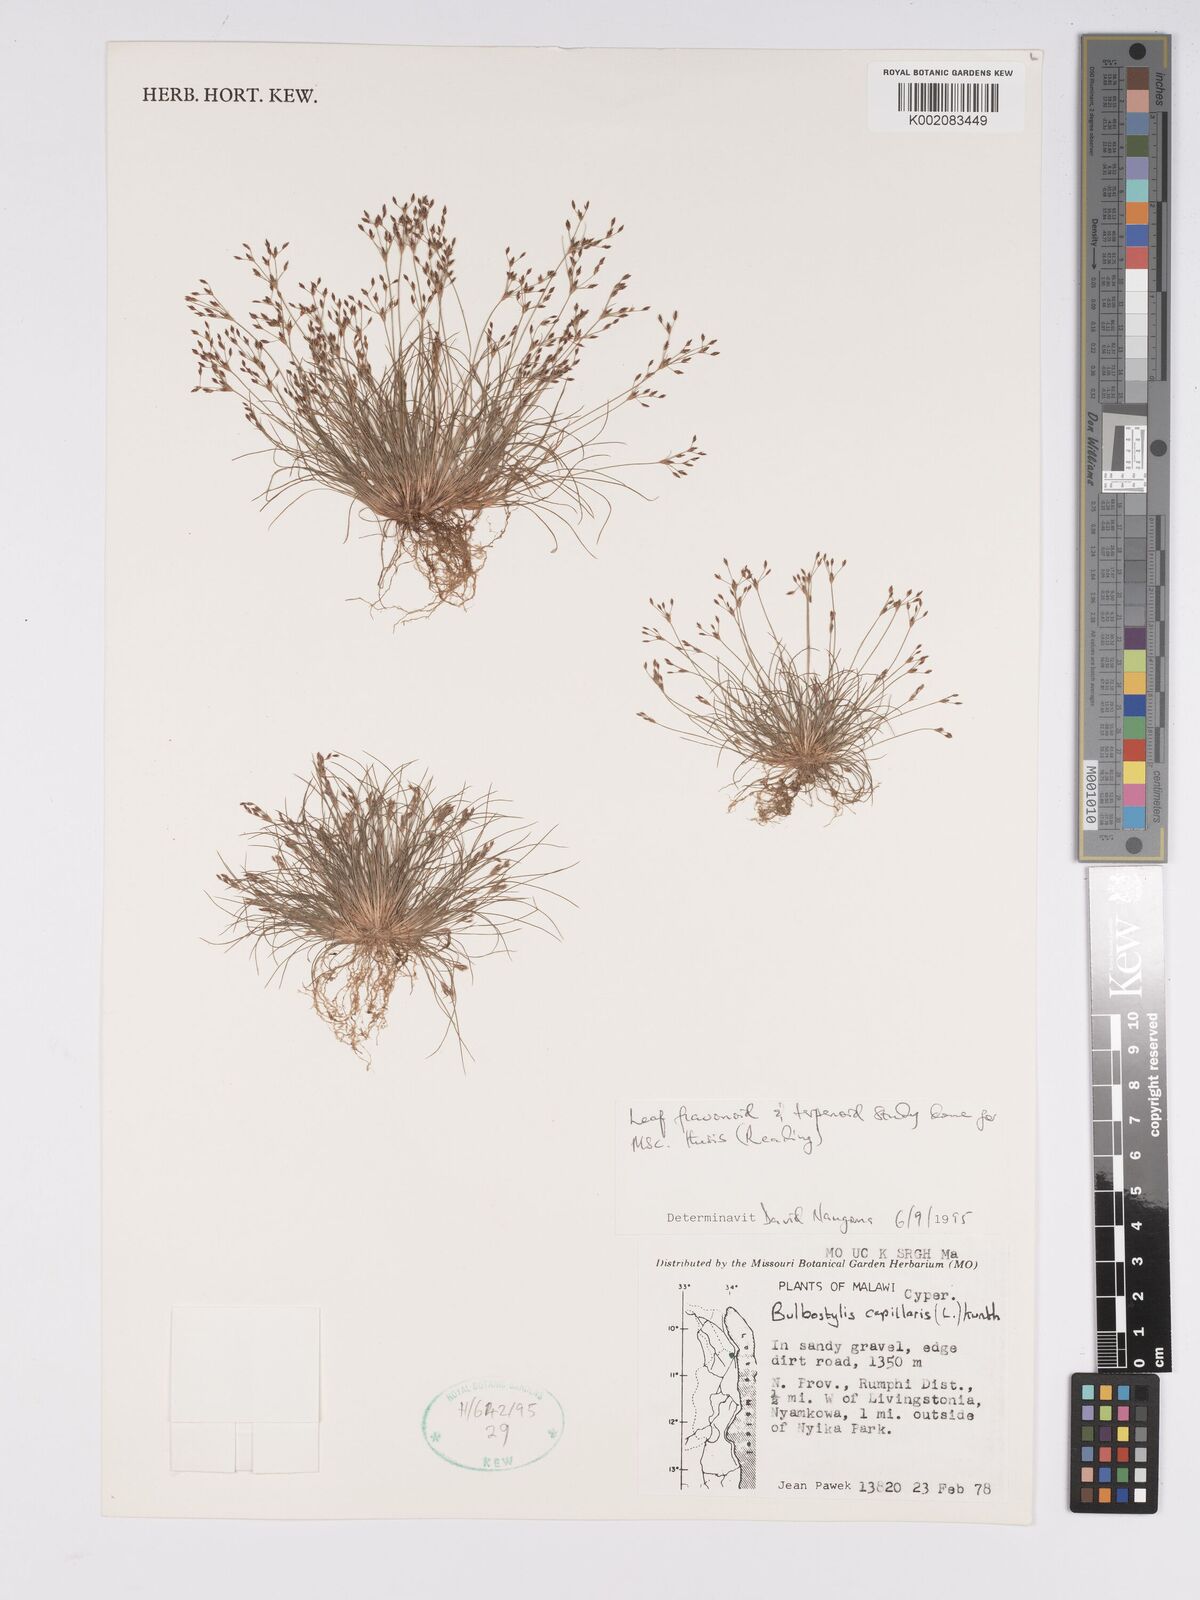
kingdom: Plantae
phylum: Tracheophyta
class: Liliopsida
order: Poales
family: Cyperaceae
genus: Bulbostylis
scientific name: Bulbostylis capillaris
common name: Densetuft hairsedge
